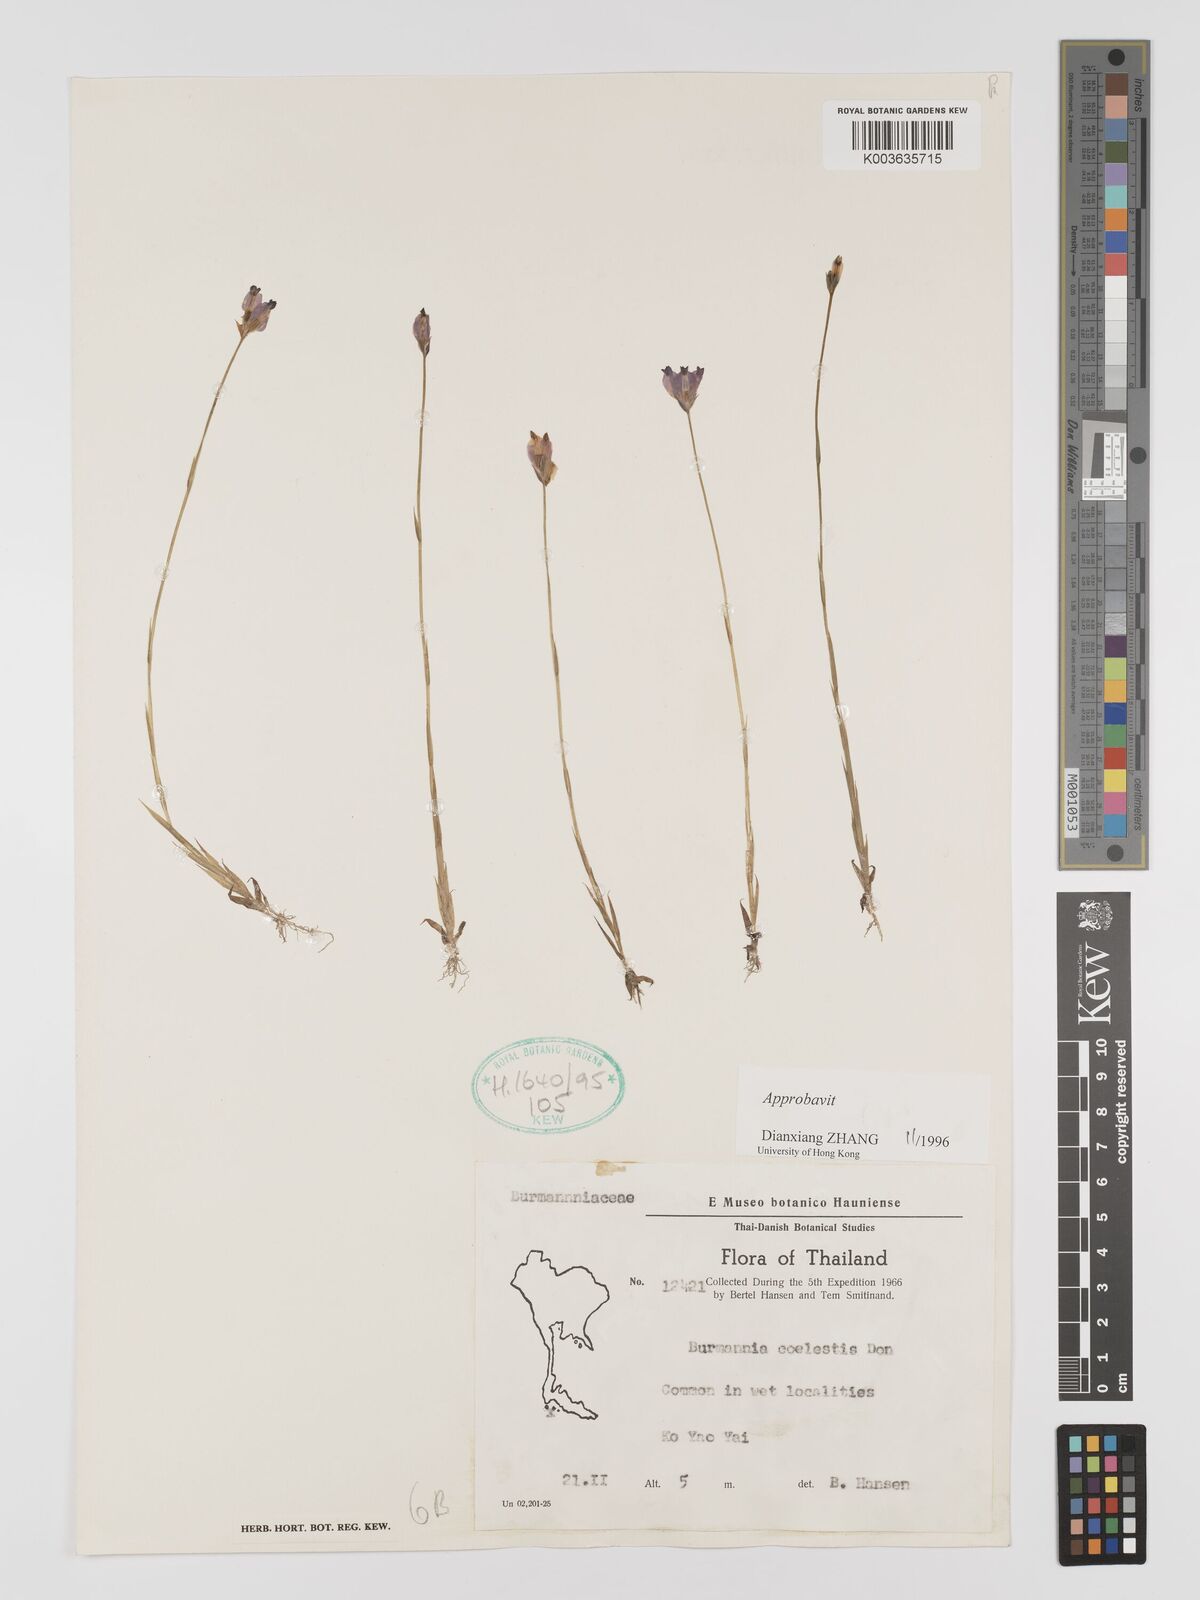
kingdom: Plantae
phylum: Tracheophyta
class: Liliopsida
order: Dioscoreales
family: Burmanniaceae
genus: Burmannia
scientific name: Burmannia coelestis
